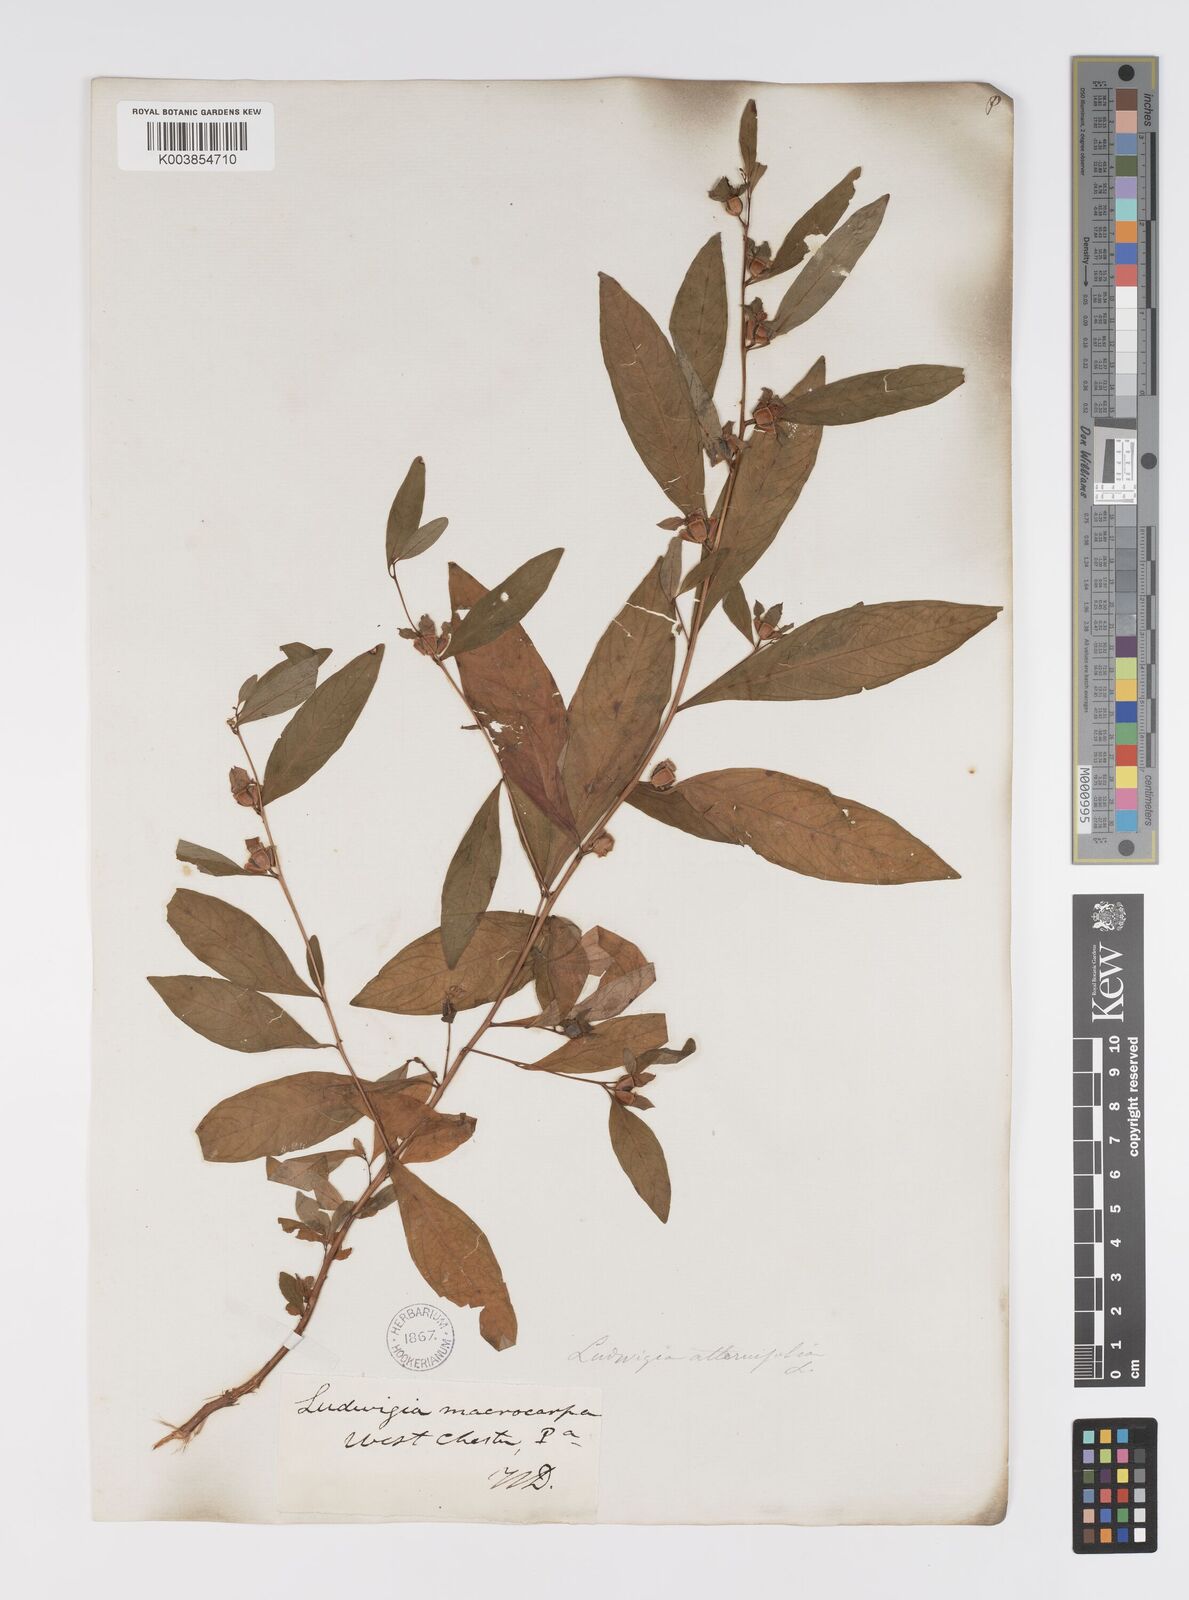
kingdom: Plantae
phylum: Tracheophyta
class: Magnoliopsida
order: Myrtales
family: Onagraceae
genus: Ludwigia
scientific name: Ludwigia alternifolia
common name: Rattlebox
